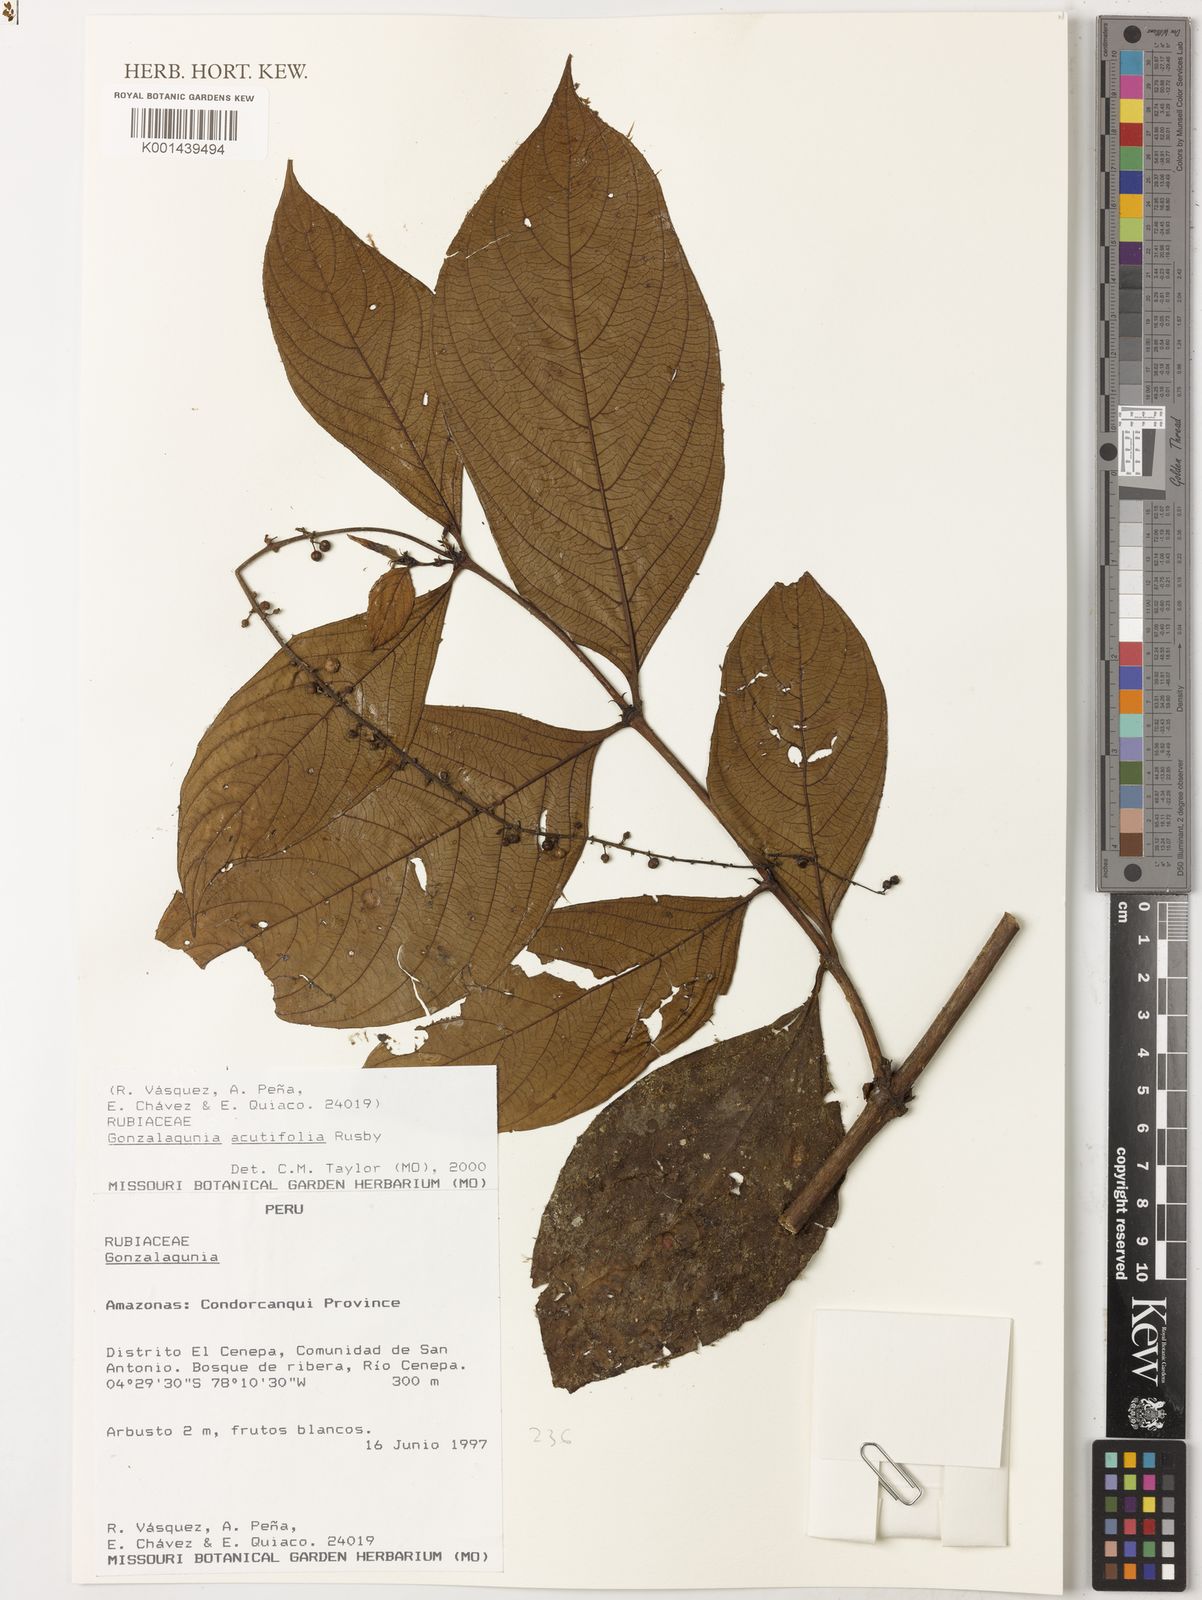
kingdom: Plantae
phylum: Tracheophyta
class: Magnoliopsida
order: Gentianales
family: Rubiaceae
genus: Gonzalagunia
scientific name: Gonzalagunia rudis
